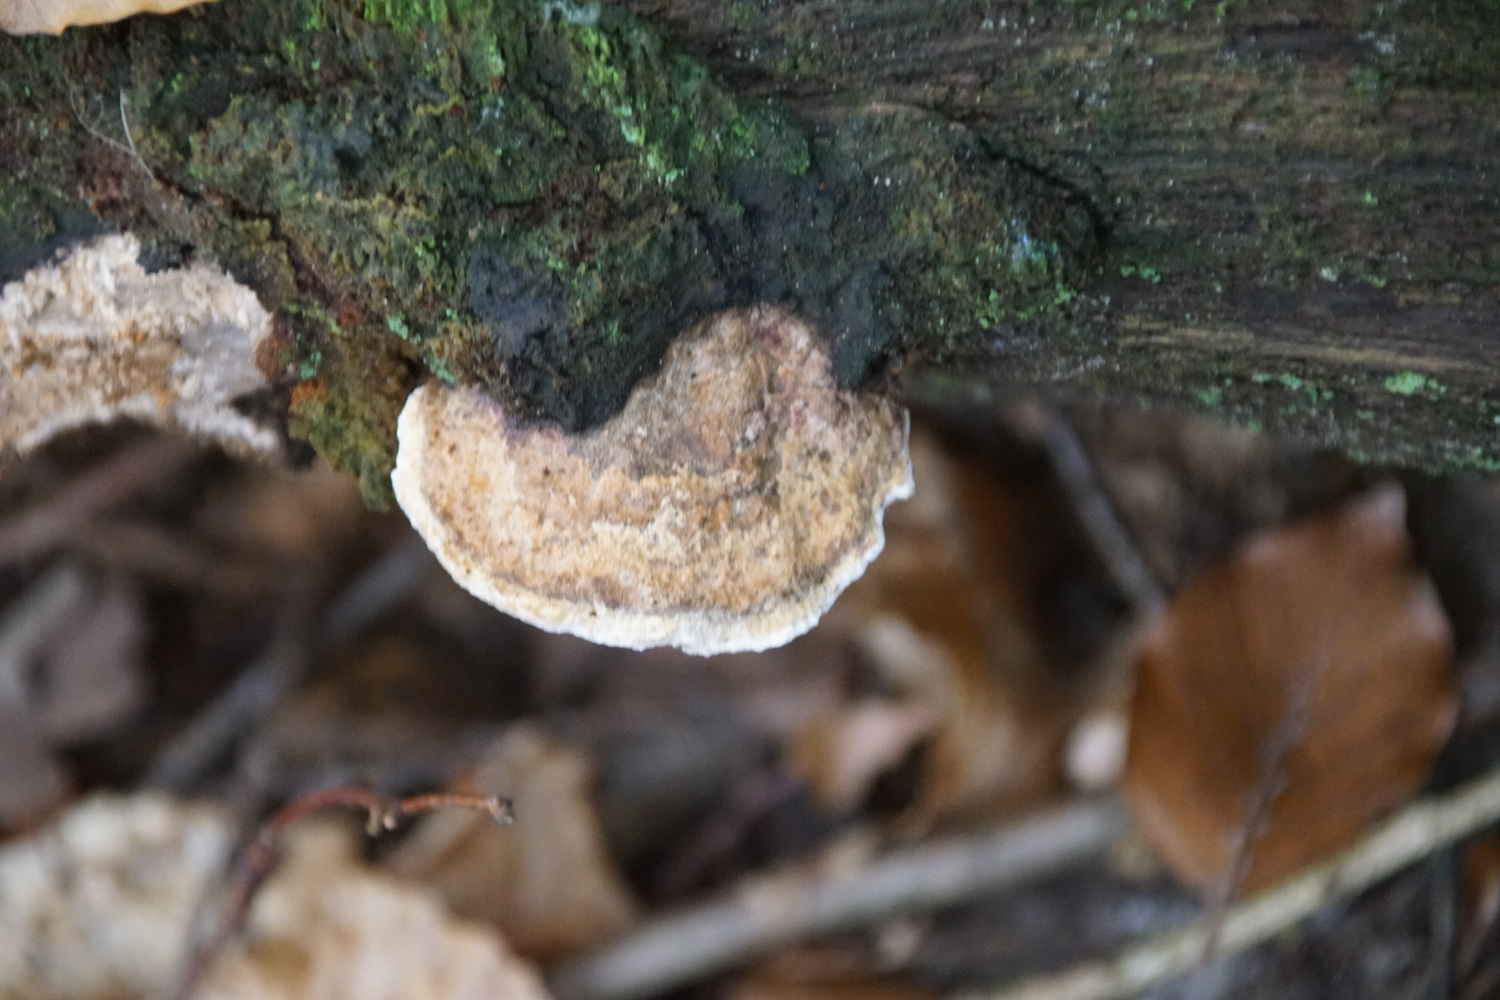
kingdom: Fungi
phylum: Basidiomycota
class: Agaricomycetes
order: Polyporales
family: Fomitopsidaceae
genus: Daedalea
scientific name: Daedalea quercina
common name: ege-labyrintsvamp
